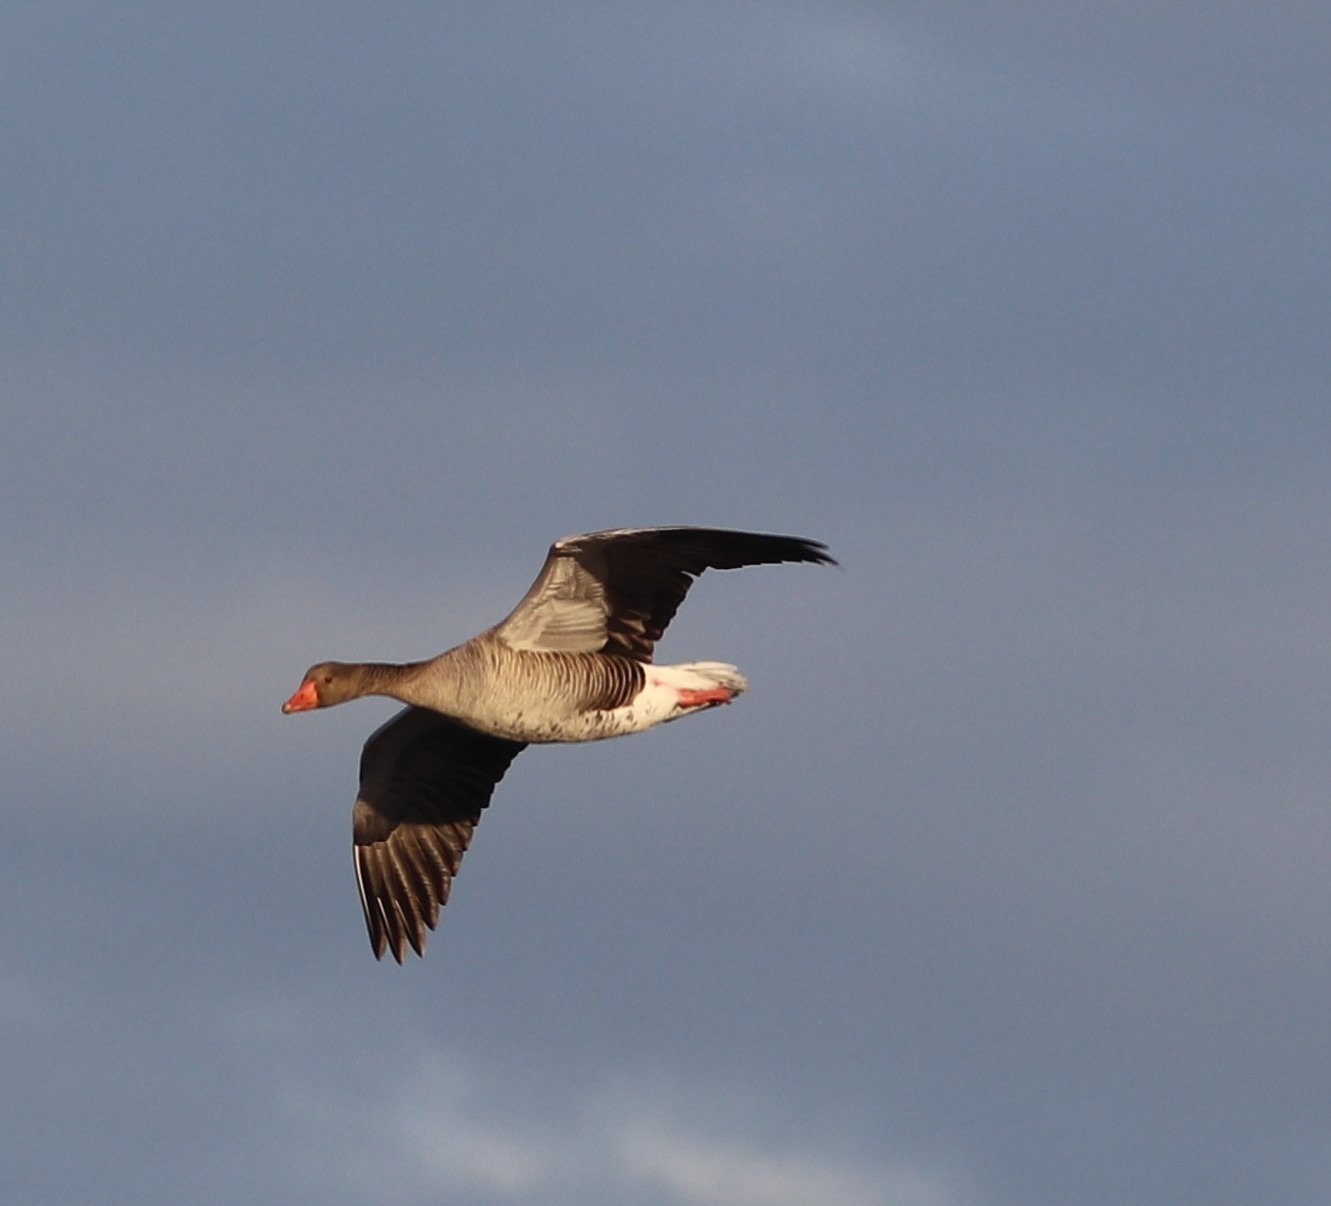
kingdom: Animalia
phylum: Chordata
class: Aves
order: Anseriformes
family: Anatidae
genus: Anser
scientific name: Anser anser
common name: Grågås
